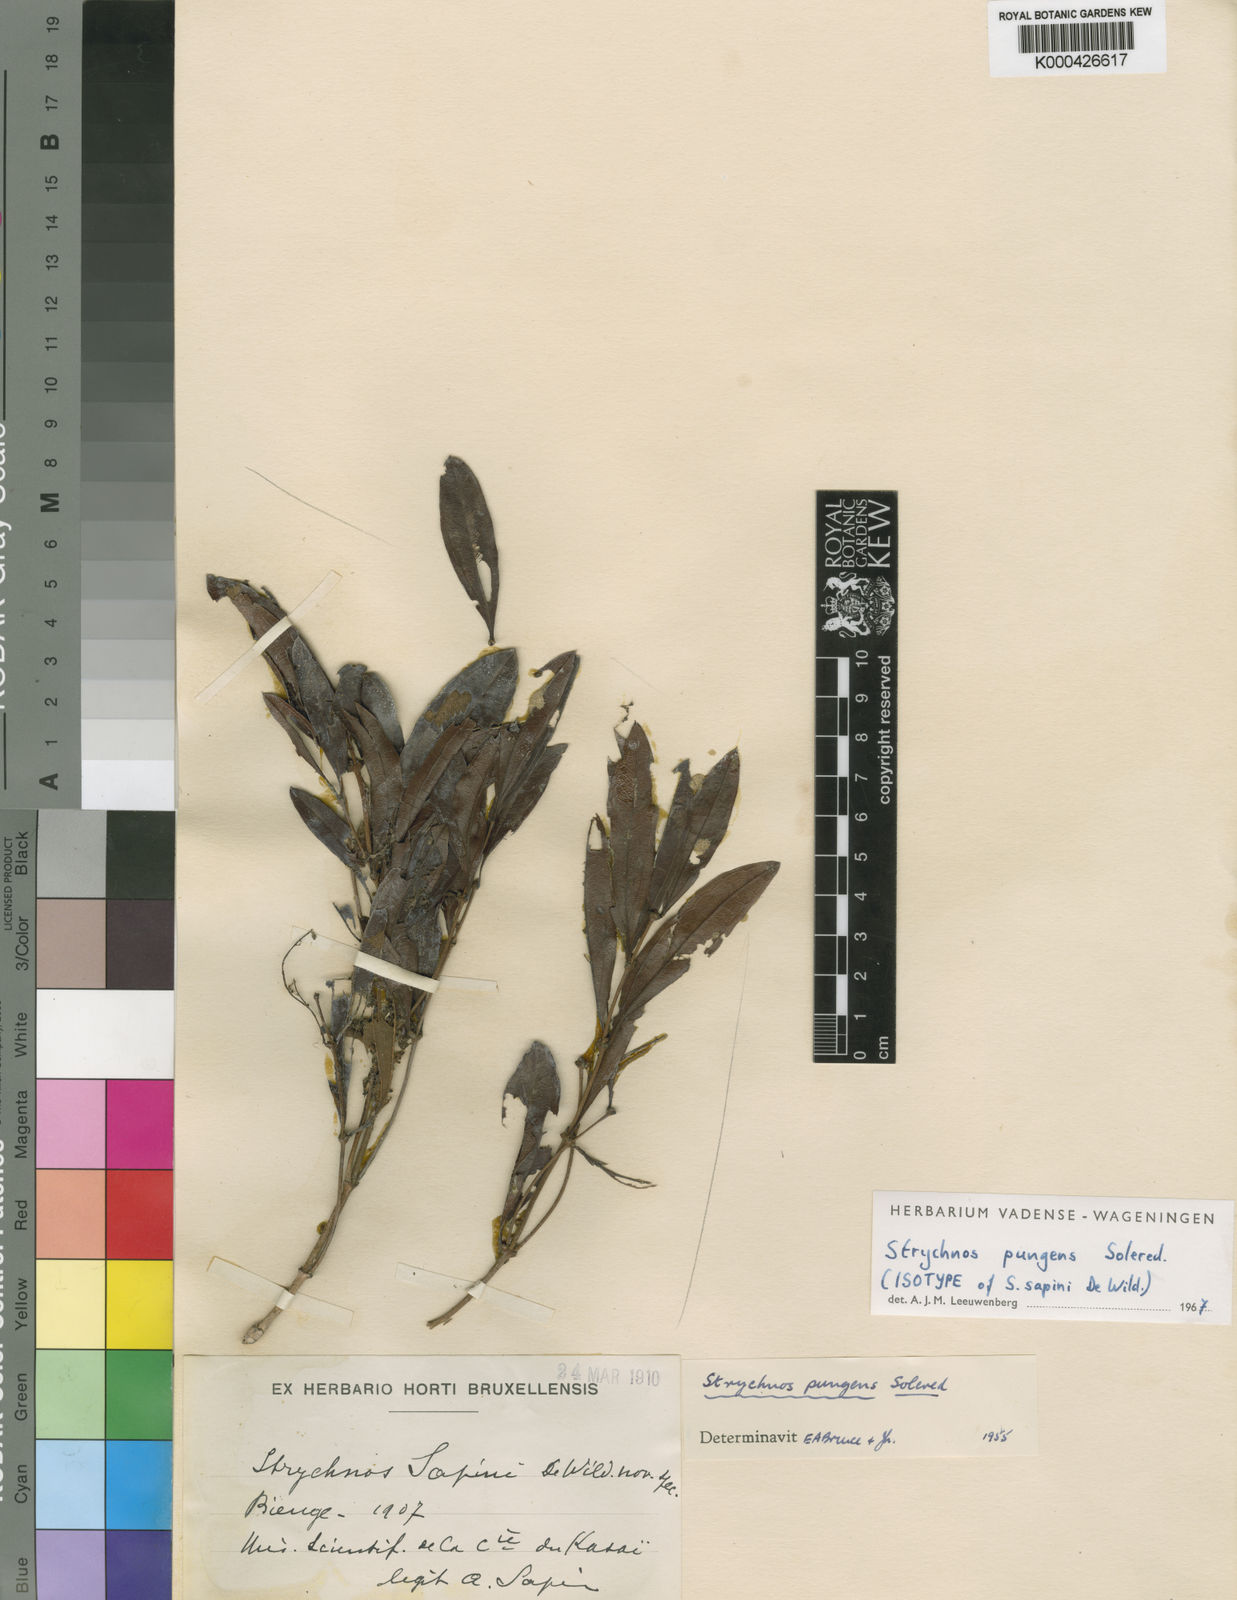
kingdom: Plantae
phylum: Tracheophyta
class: Magnoliopsida
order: Gentianales
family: Loganiaceae
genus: Strychnos
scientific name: Strychnos pungens
